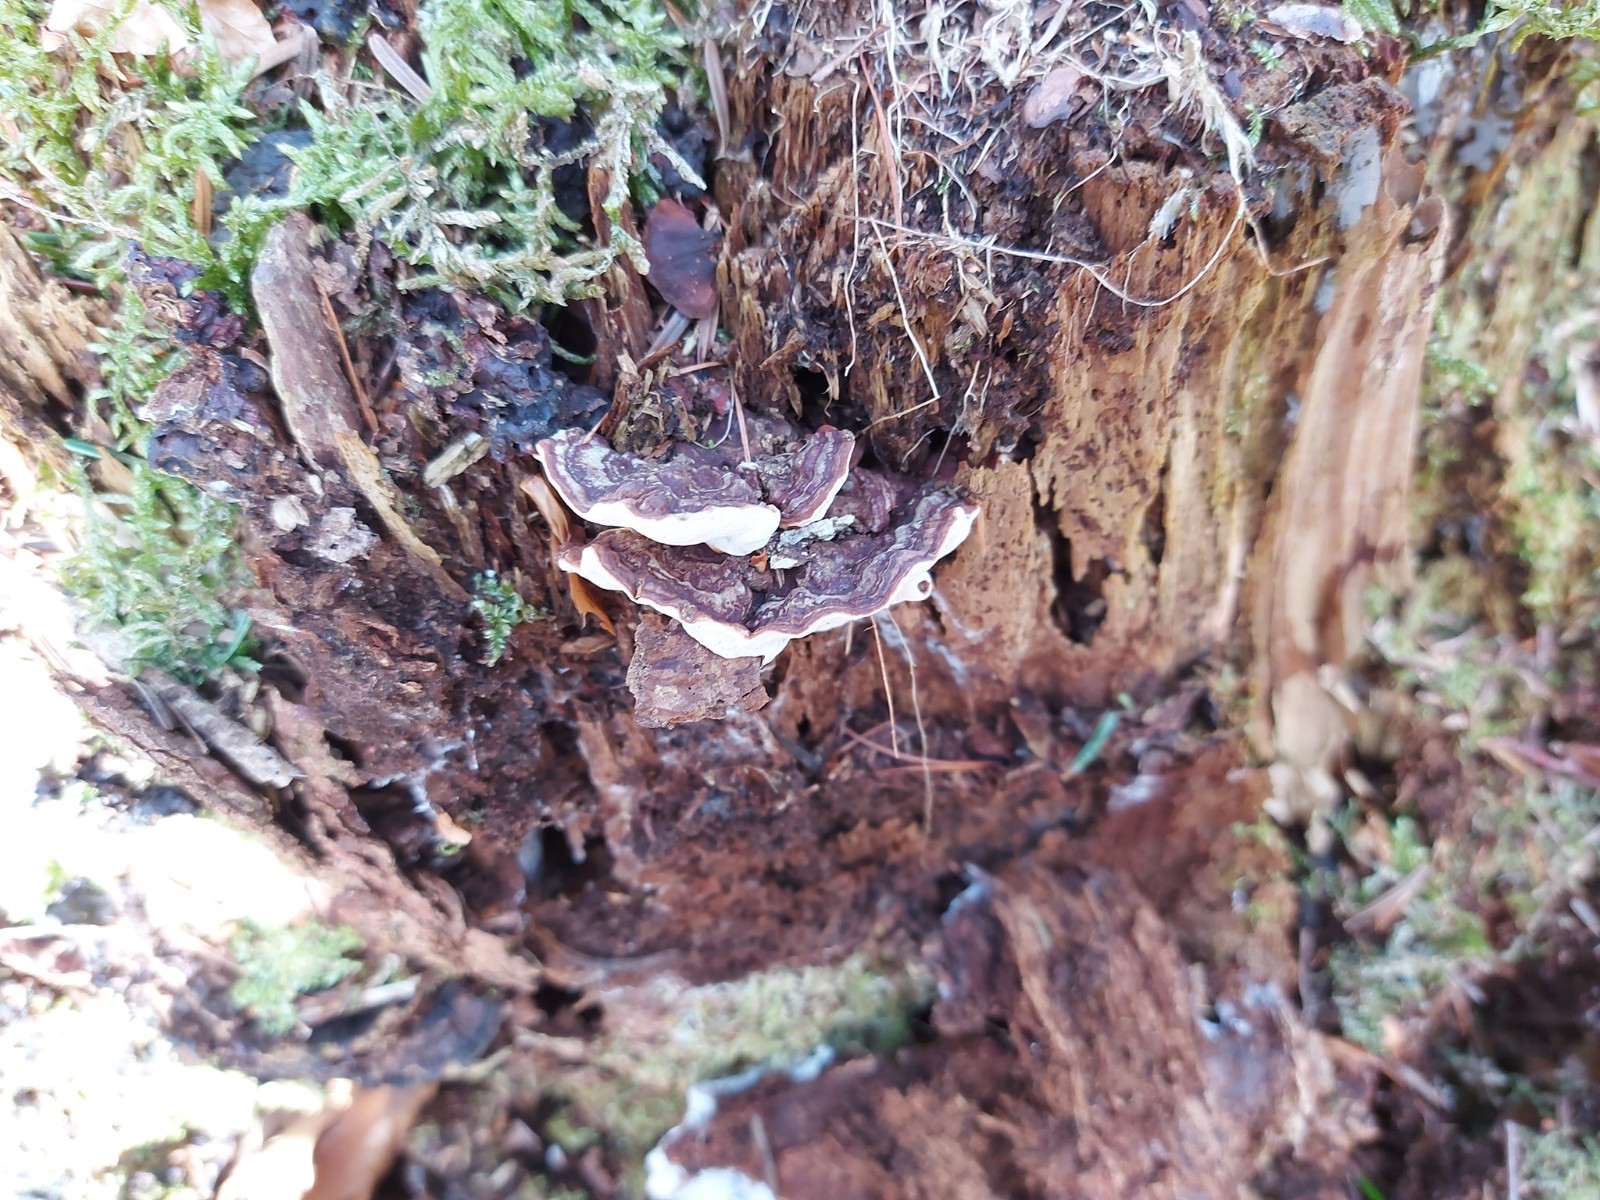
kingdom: Fungi
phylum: Basidiomycota
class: Agaricomycetes
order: Russulales
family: Bondarzewiaceae
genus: Heterobasidion
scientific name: Heterobasidion annosum
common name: almindelig rodfordærver
